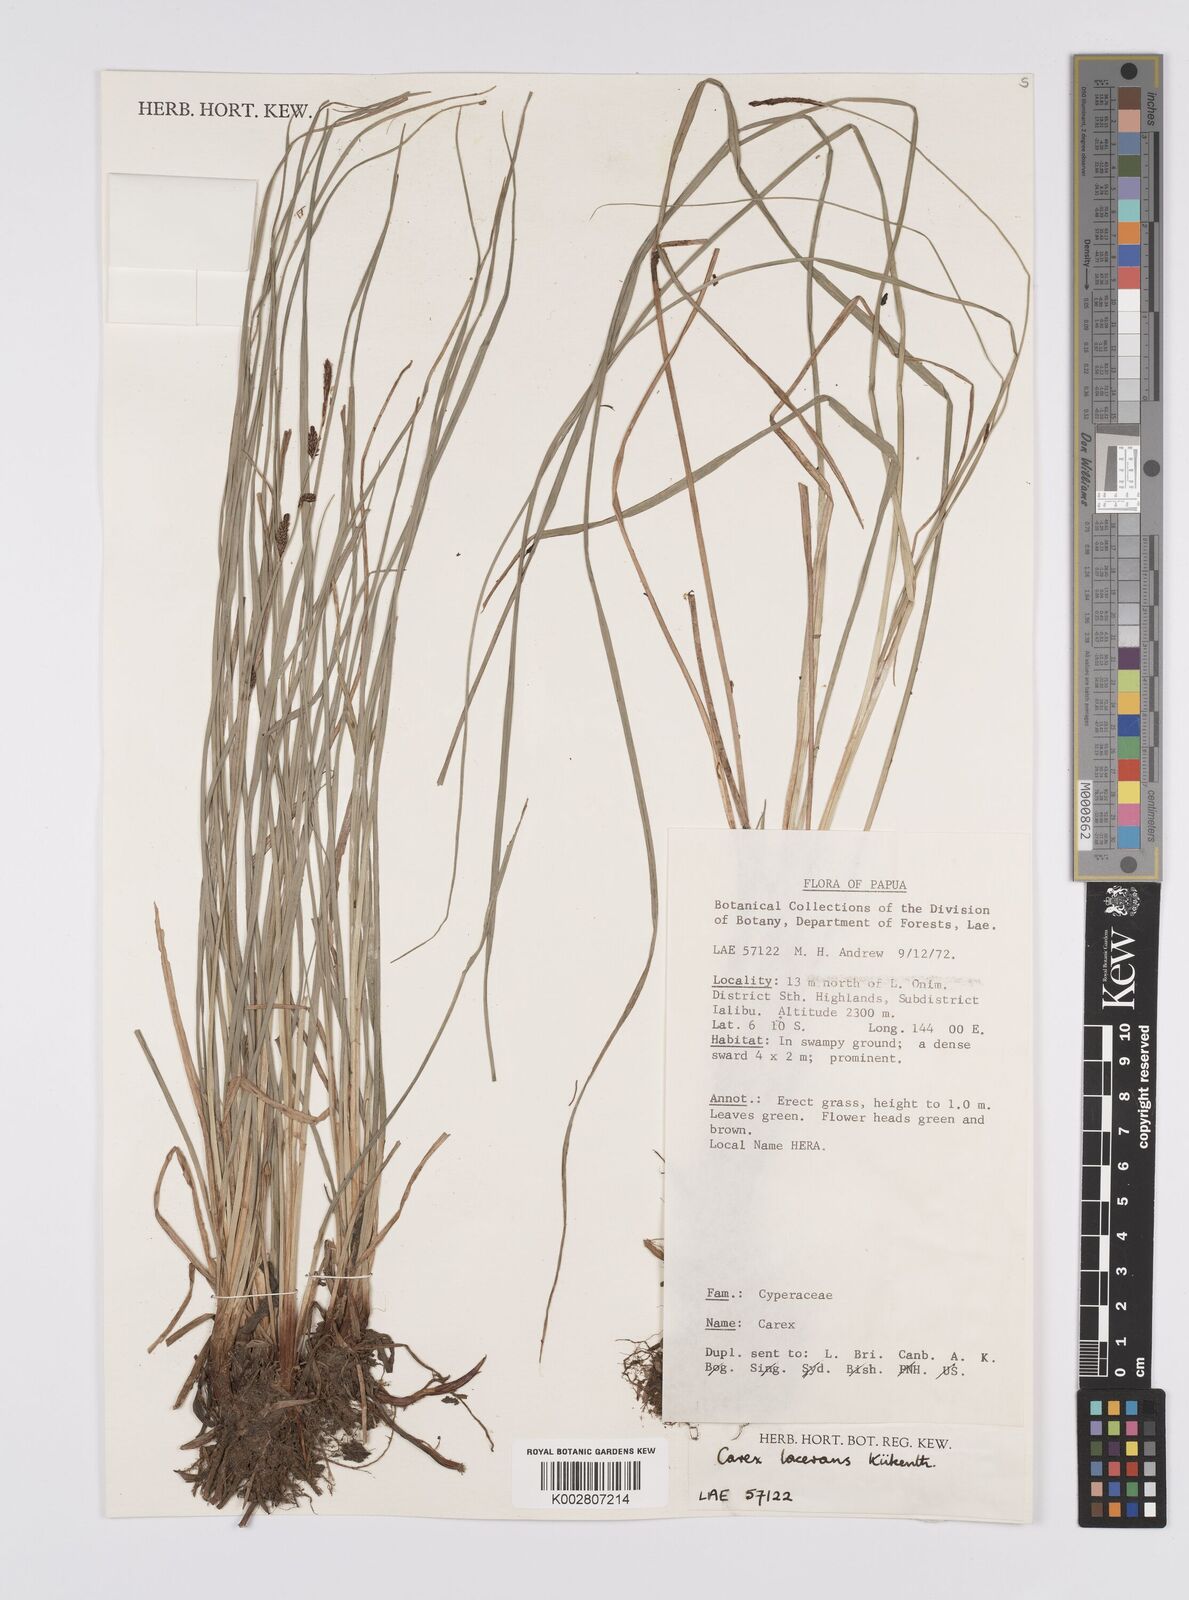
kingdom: Plantae
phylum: Tracheophyta
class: Liliopsida
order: Poales
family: Cyperaceae
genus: Carex
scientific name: Carex gaudichaudiana
